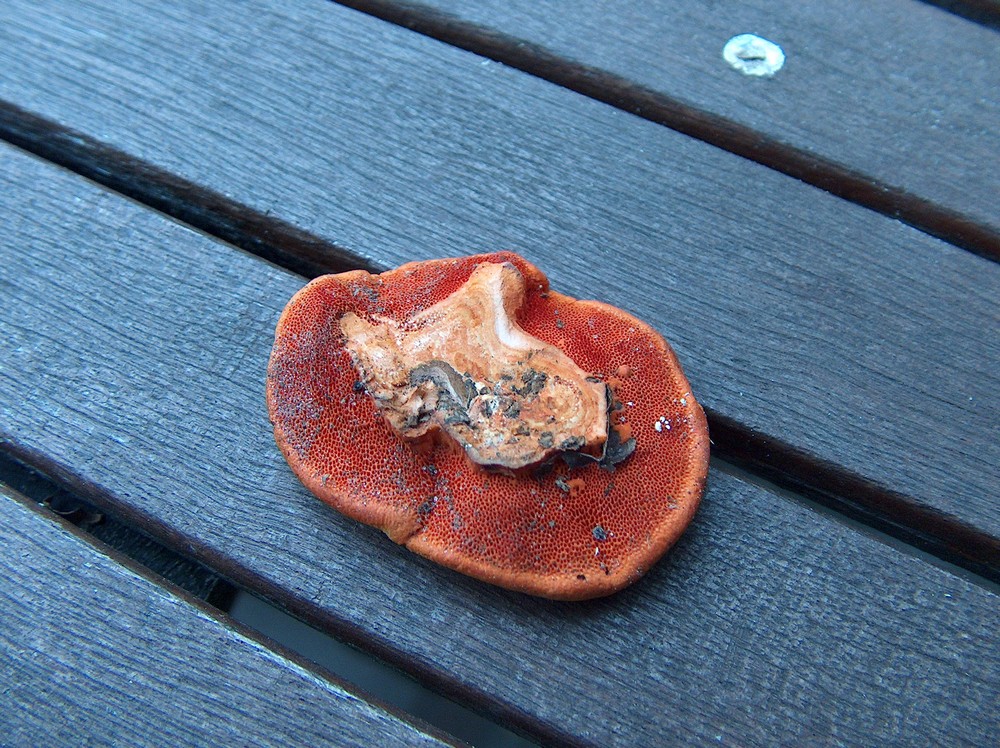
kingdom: Fungi
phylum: Basidiomycota
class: Agaricomycetes
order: Polyporales
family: Polyporaceae
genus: Trametes
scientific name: Trametes cinnabarina
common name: cinnoberporesvamp
